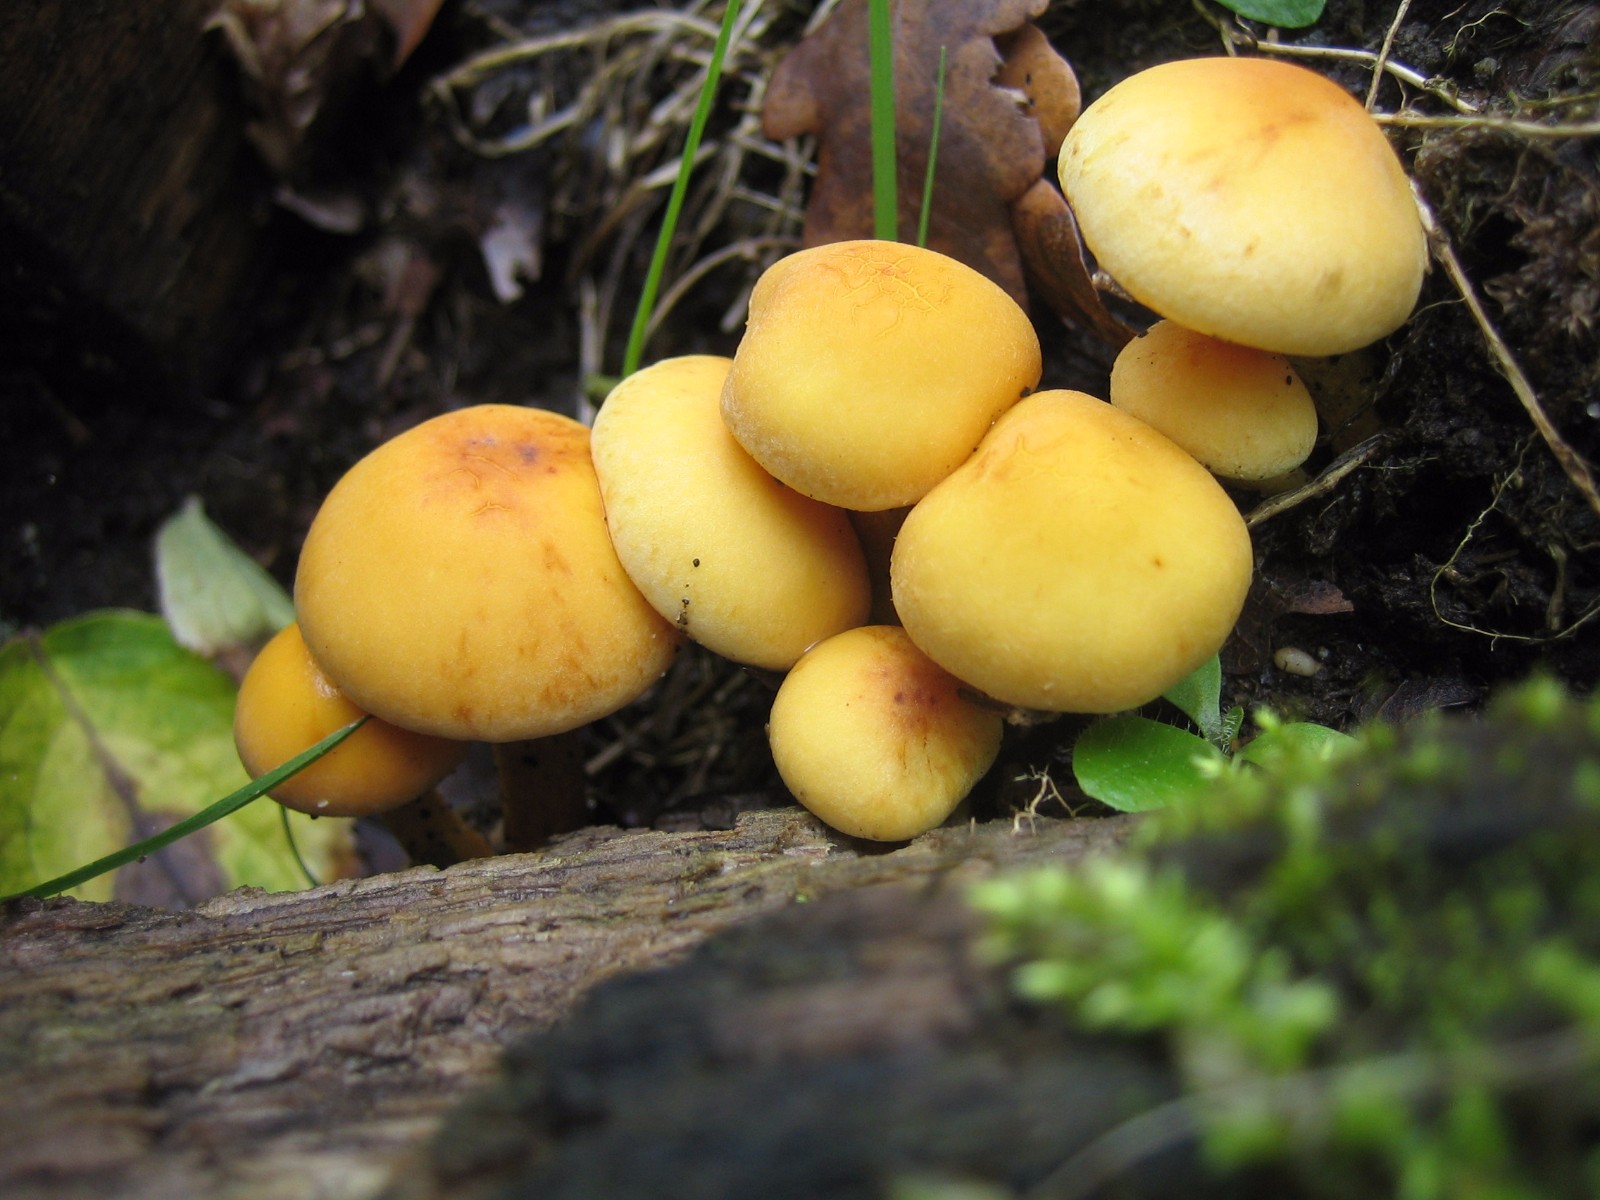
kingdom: Fungi
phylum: Basidiomycota
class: Agaricomycetes
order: Agaricales
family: Strophariaceae
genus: Hypholoma
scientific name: Hypholoma fasciculare
